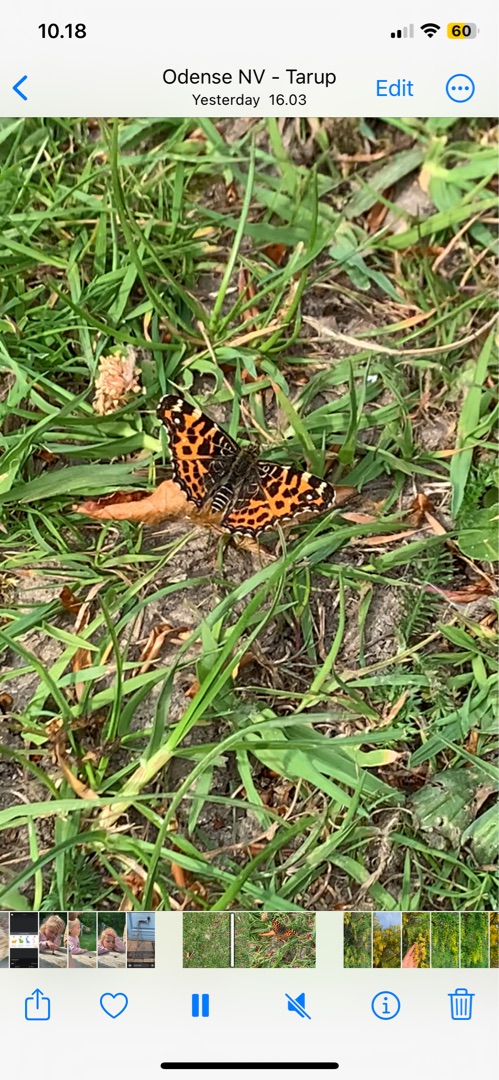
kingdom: Animalia
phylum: Arthropoda
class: Insecta
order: Lepidoptera
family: Nymphalidae
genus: Araschnia
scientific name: Araschnia levana
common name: Nældesommerfugl
